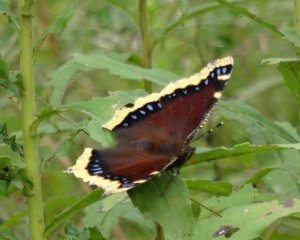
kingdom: Animalia
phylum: Arthropoda
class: Insecta
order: Lepidoptera
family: Nymphalidae
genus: Nymphalis
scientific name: Nymphalis antiopa
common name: Mourning Cloak
